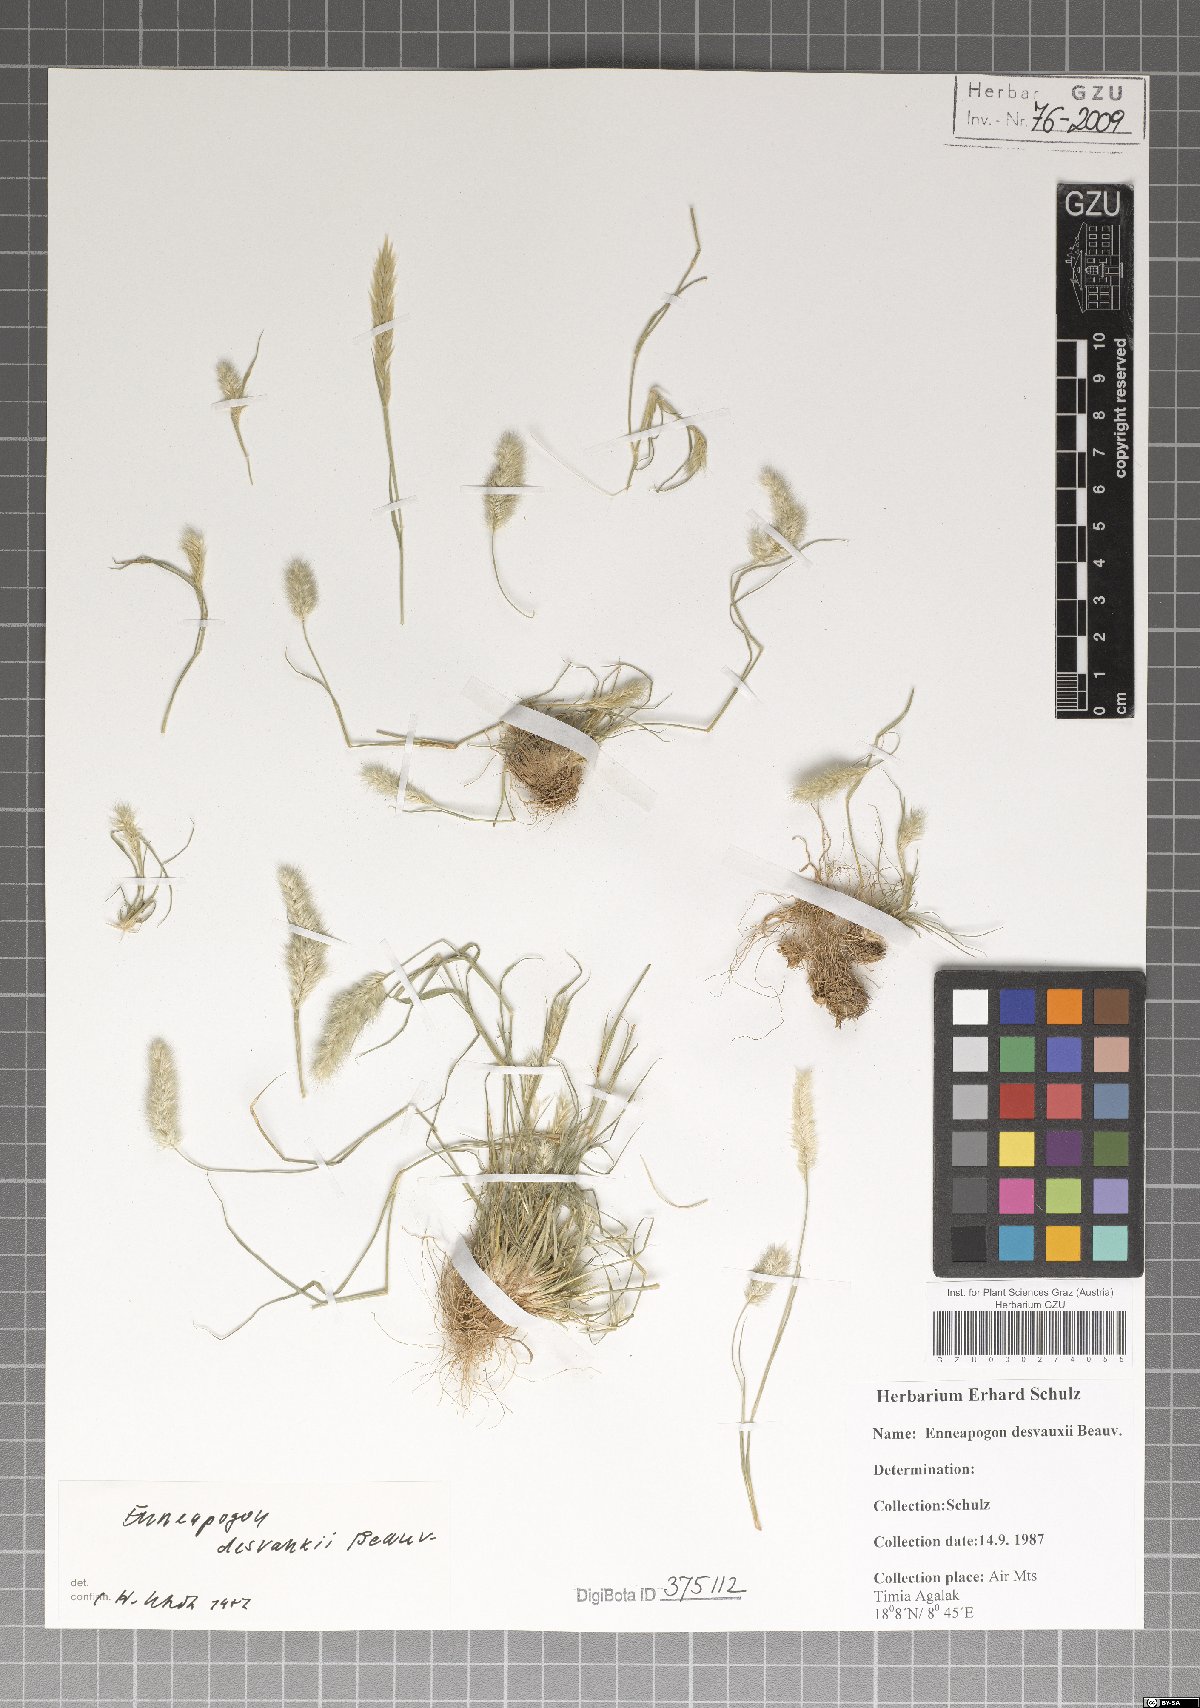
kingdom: Plantae
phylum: Tracheophyta
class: Liliopsida
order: Poales
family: Poaceae
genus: Enneapogon
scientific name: Enneapogon desvauxii
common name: Feather pappus grass
